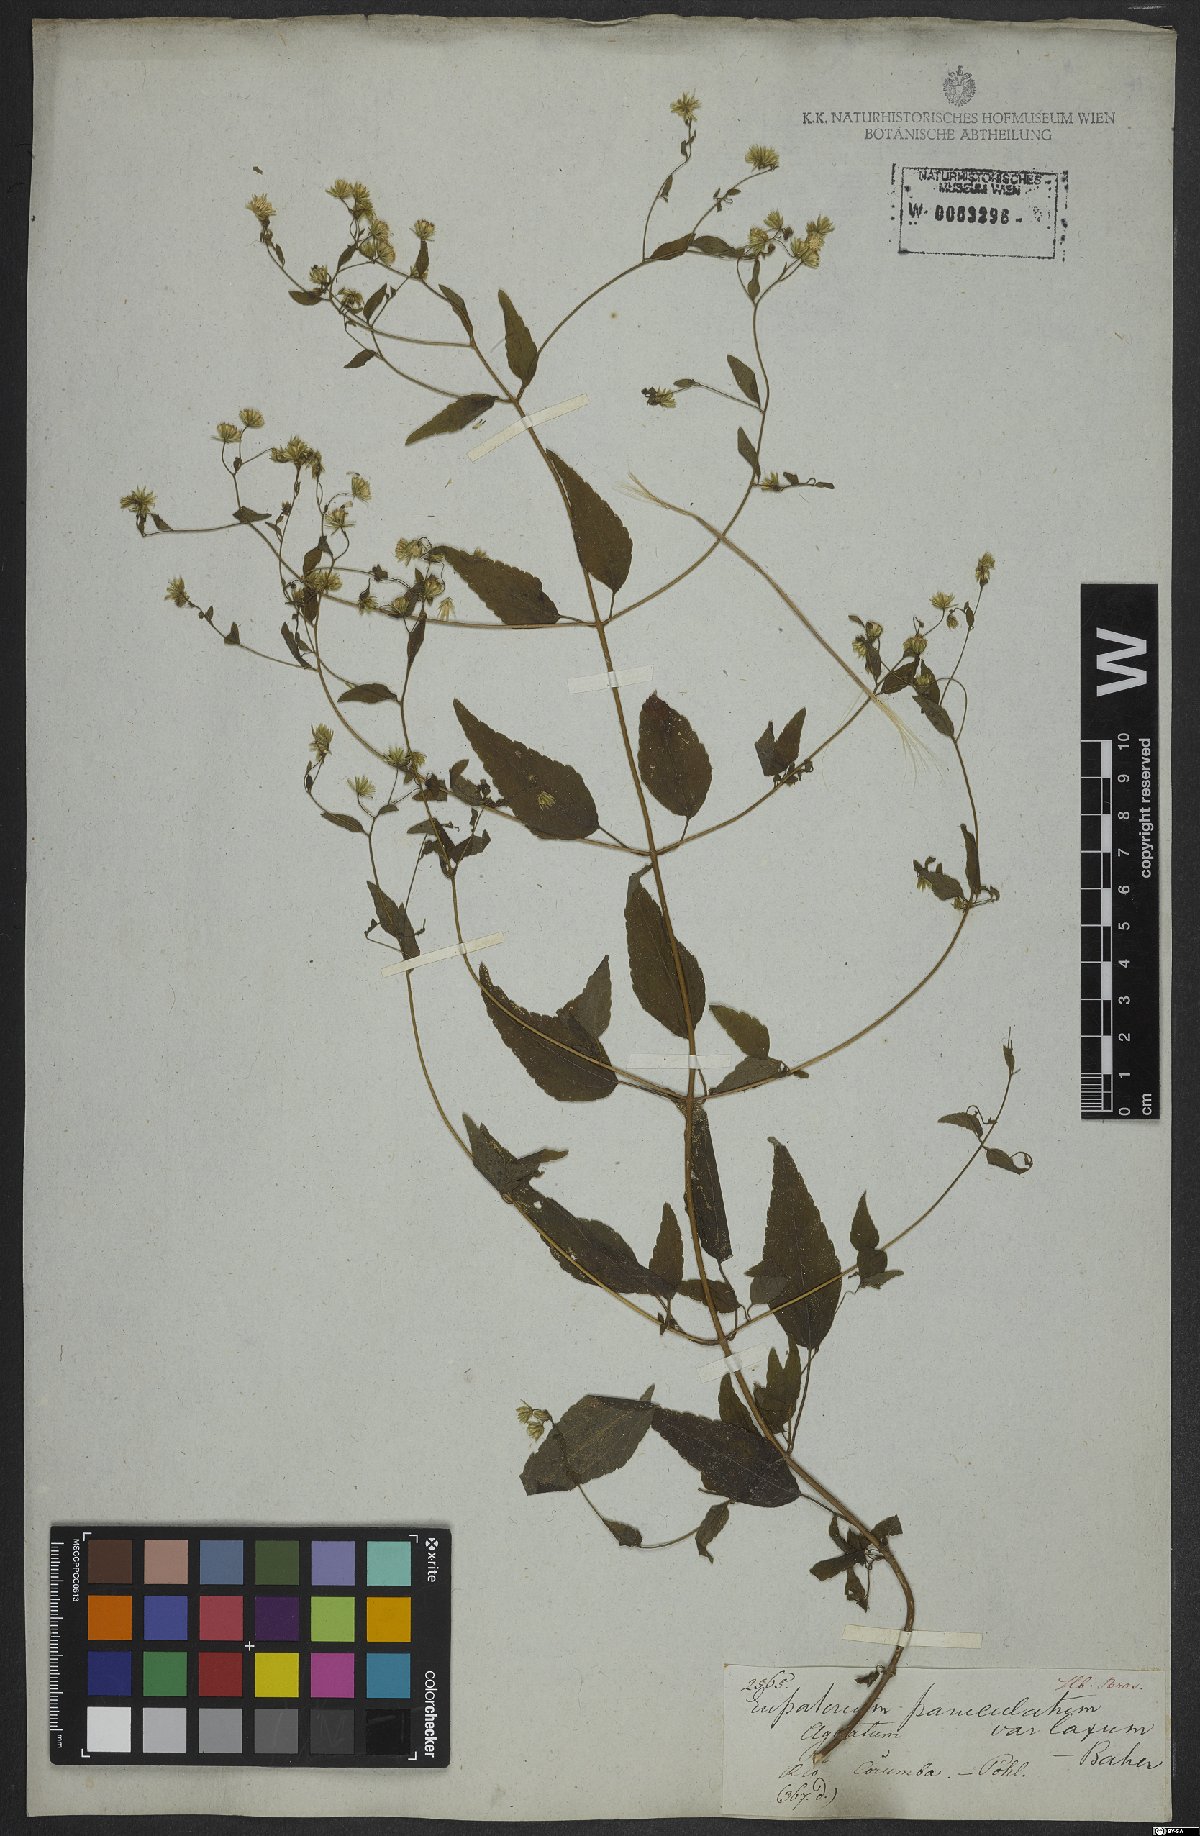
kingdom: Plantae
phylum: Tracheophyta
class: Magnoliopsida
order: Asterales
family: Asteraceae
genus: Fleischmannia
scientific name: Fleischmannia microstemon
